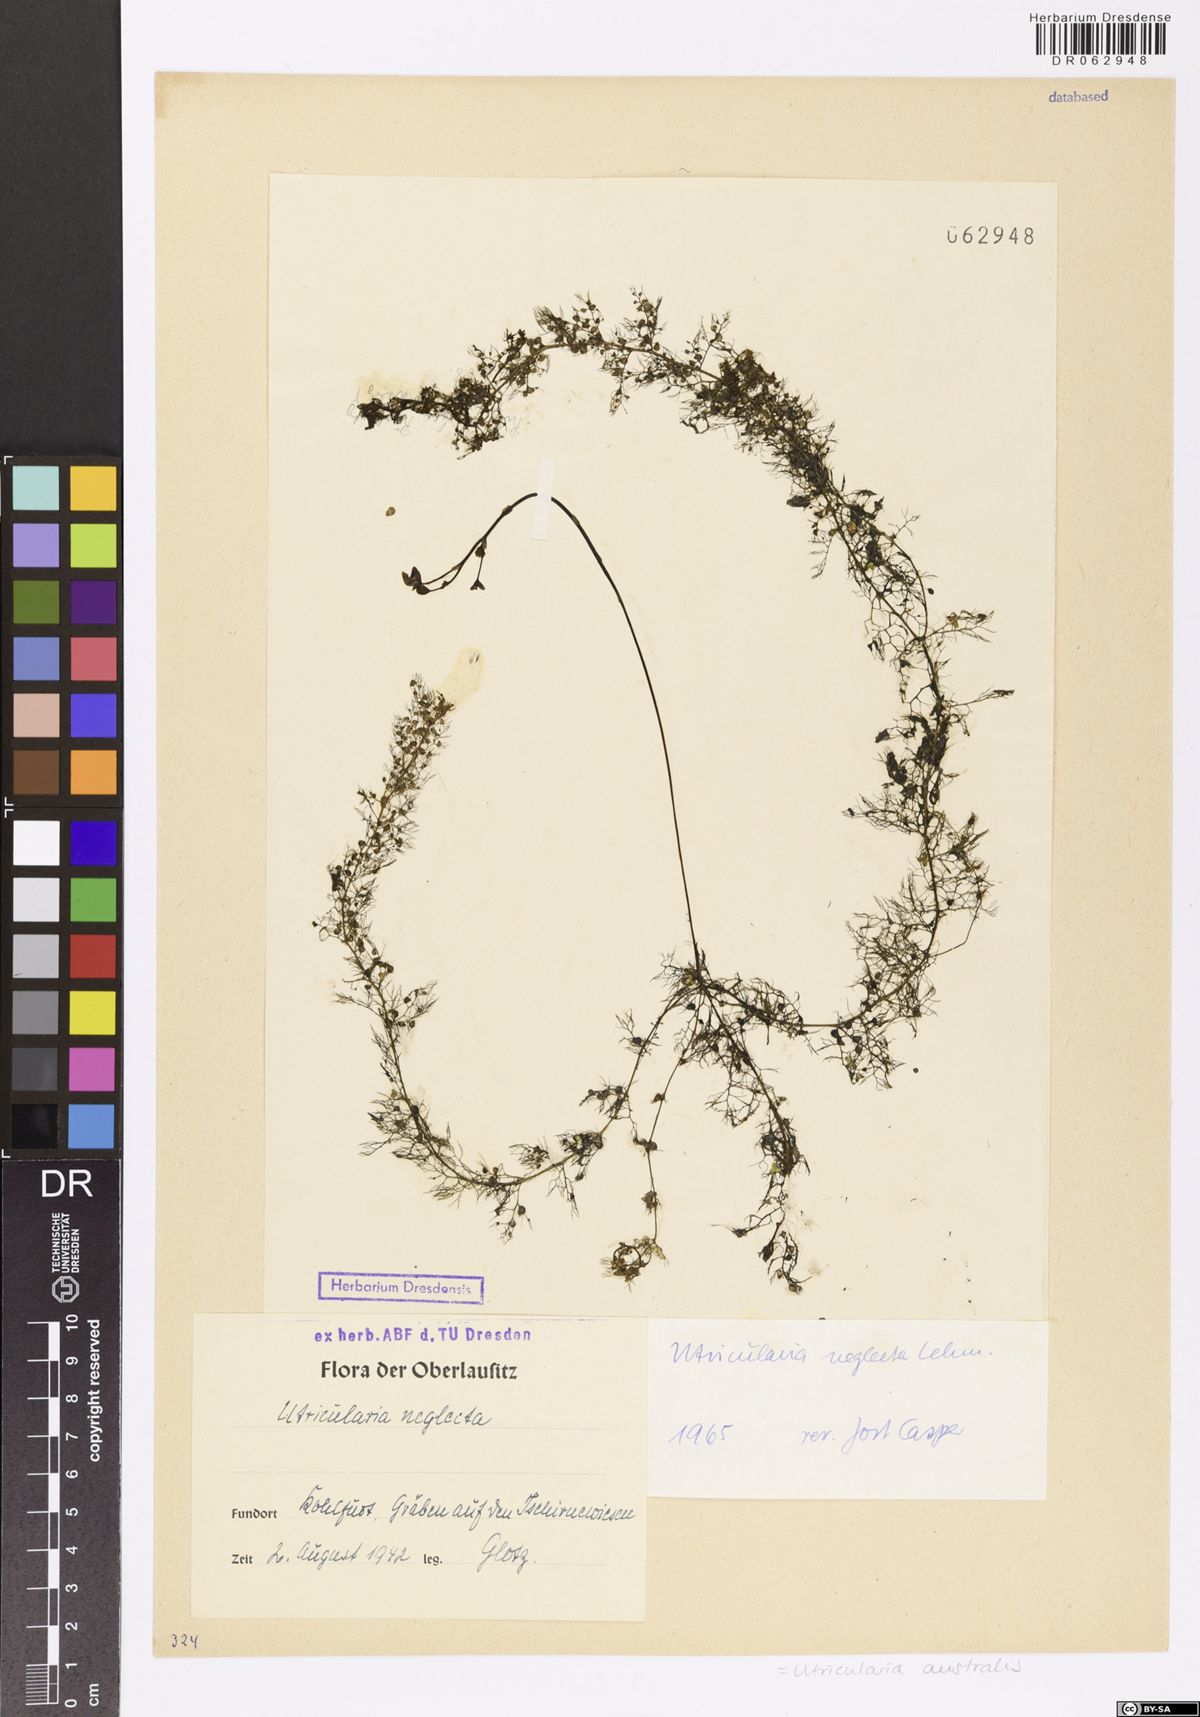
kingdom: Plantae
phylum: Tracheophyta
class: Magnoliopsida
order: Lamiales
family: Lentibulariaceae
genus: Utricularia
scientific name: Utricularia australis
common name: Bladderwort
